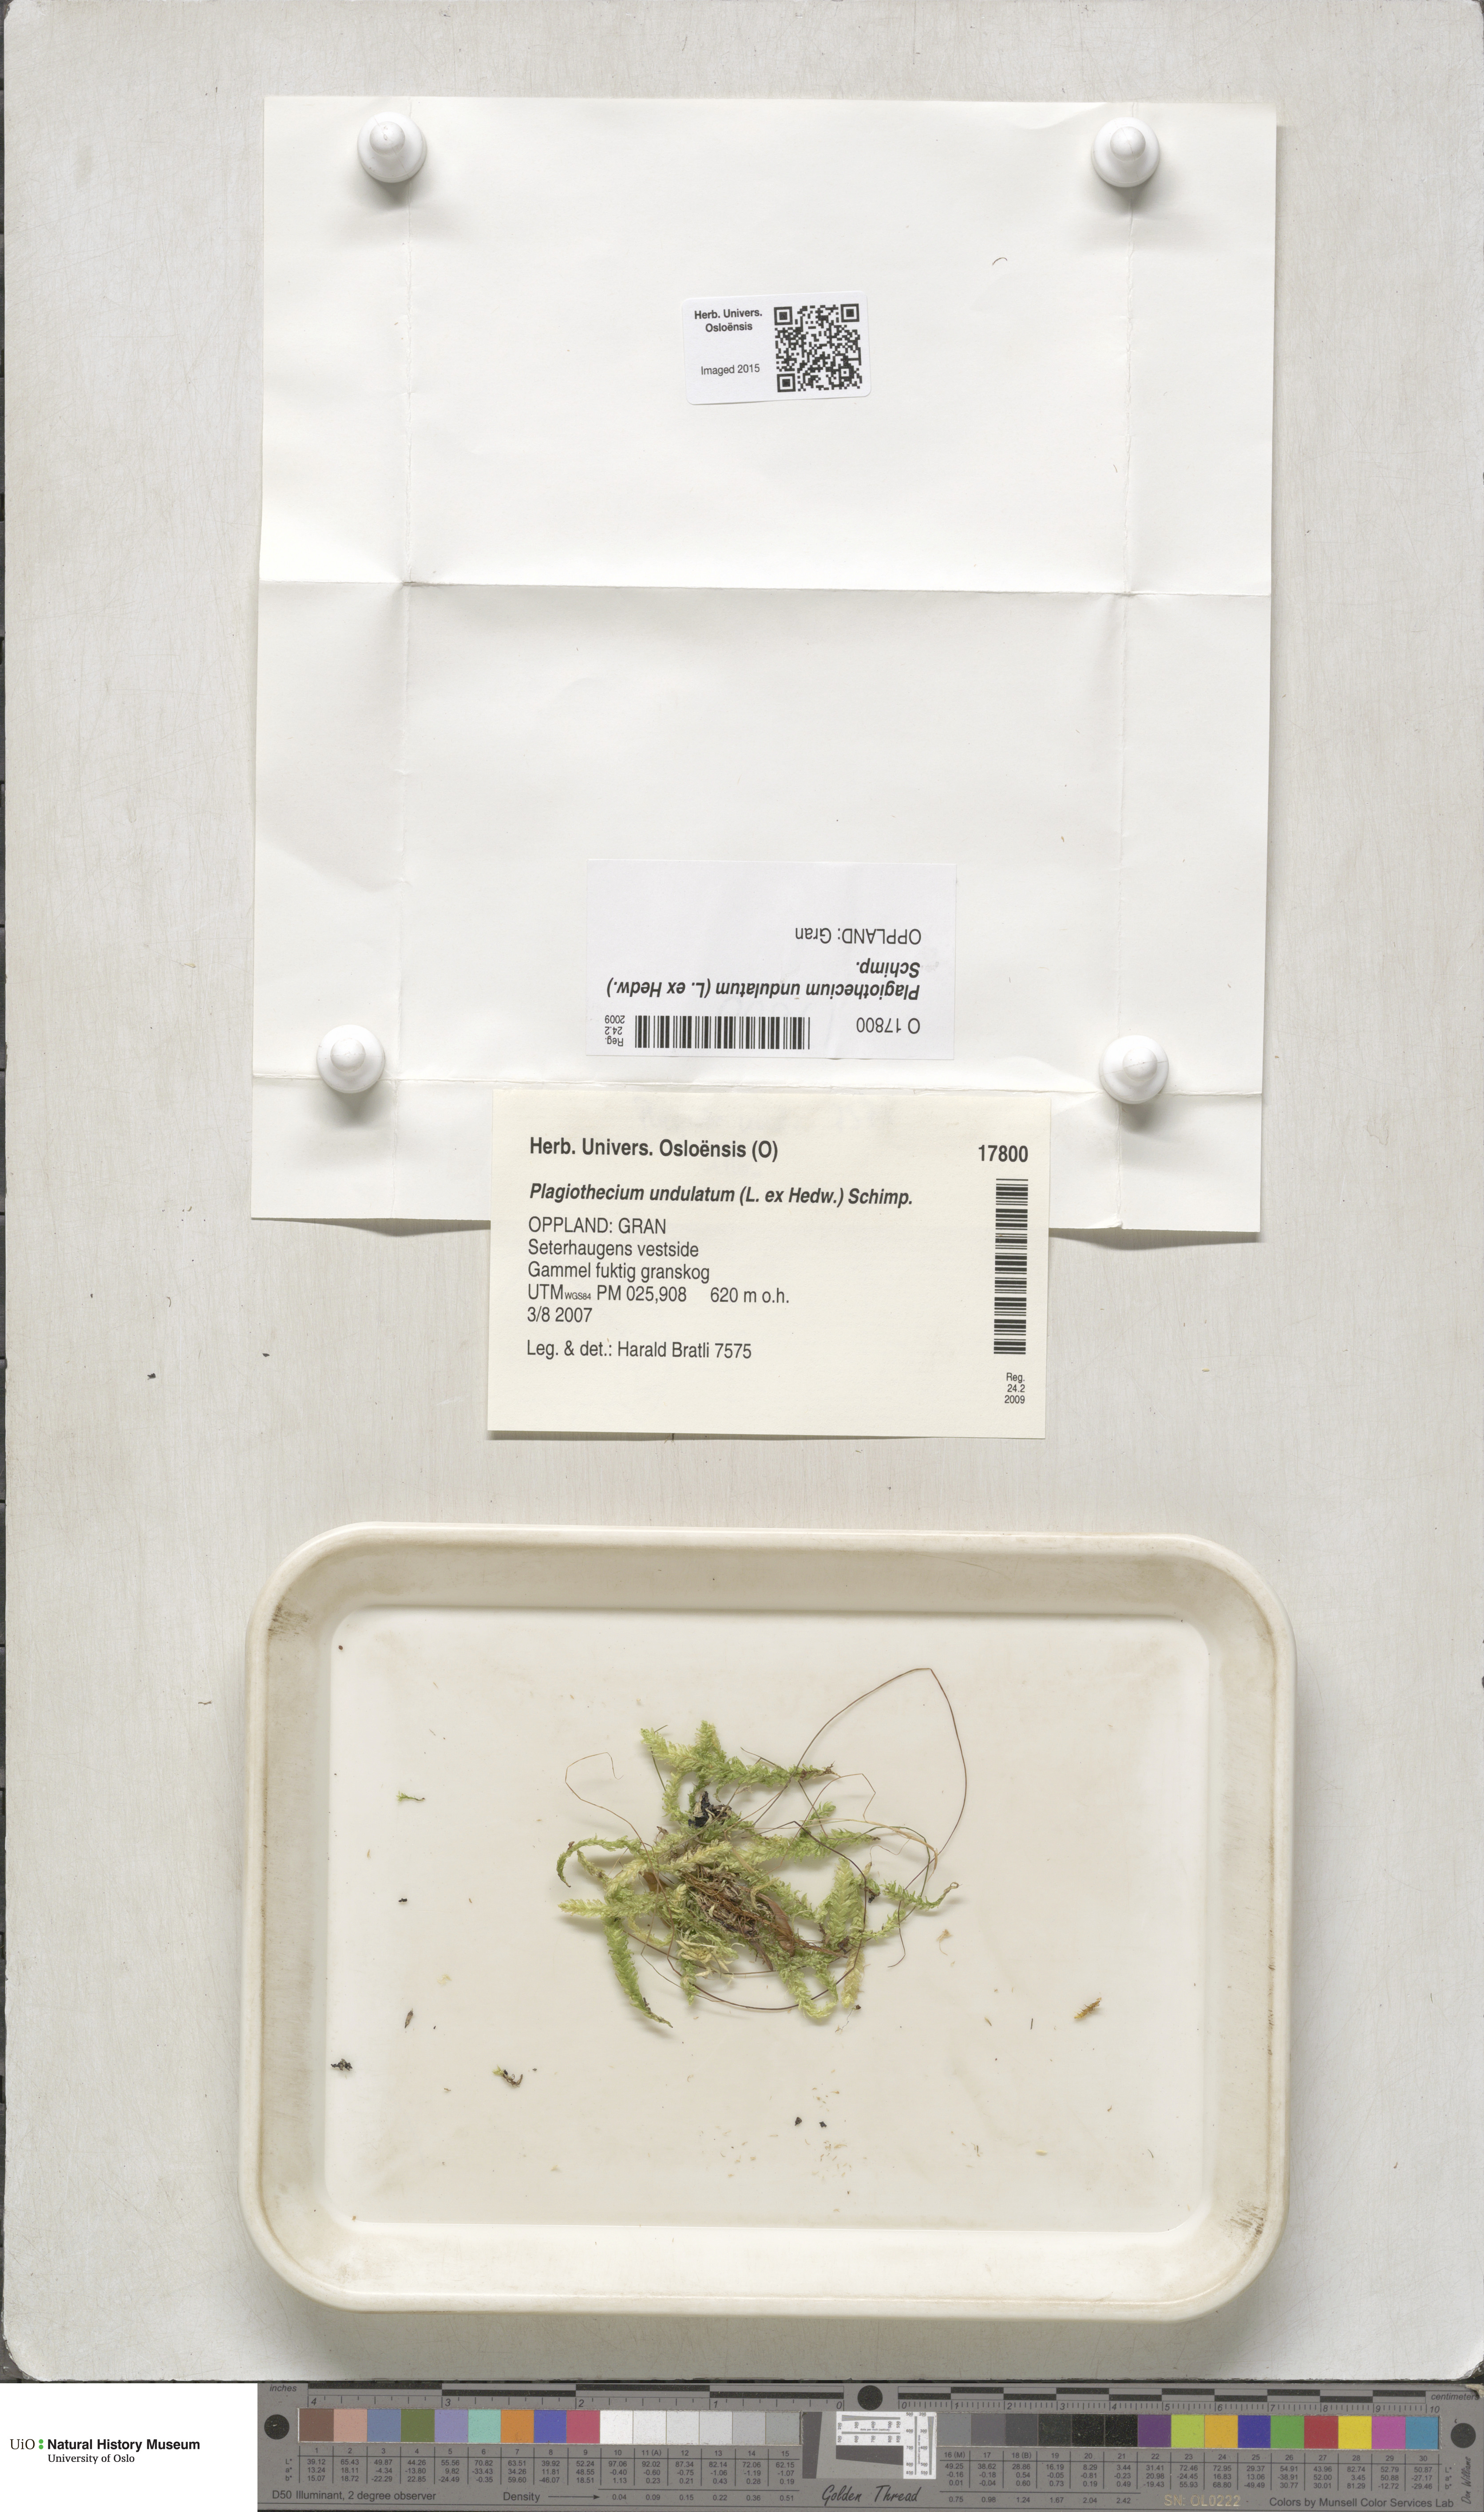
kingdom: Plantae
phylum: Bryophyta
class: Bryopsida
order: Hypnales
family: Plagiotheciaceae
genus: Plagiothecium
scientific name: Plagiothecium undulatum
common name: Waved silk-moss
